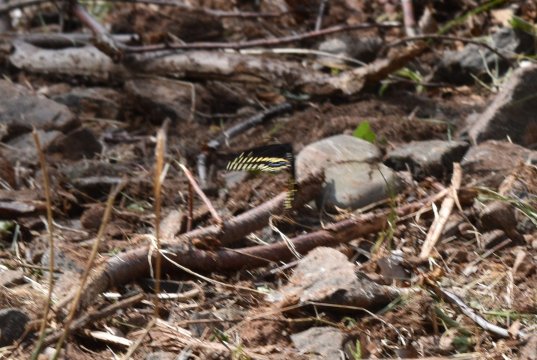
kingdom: Animalia
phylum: Arthropoda
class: Insecta
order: Lepidoptera
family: Papilionidae
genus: Papilio
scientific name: Papilio polyxenes
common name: Black Swallowtail
